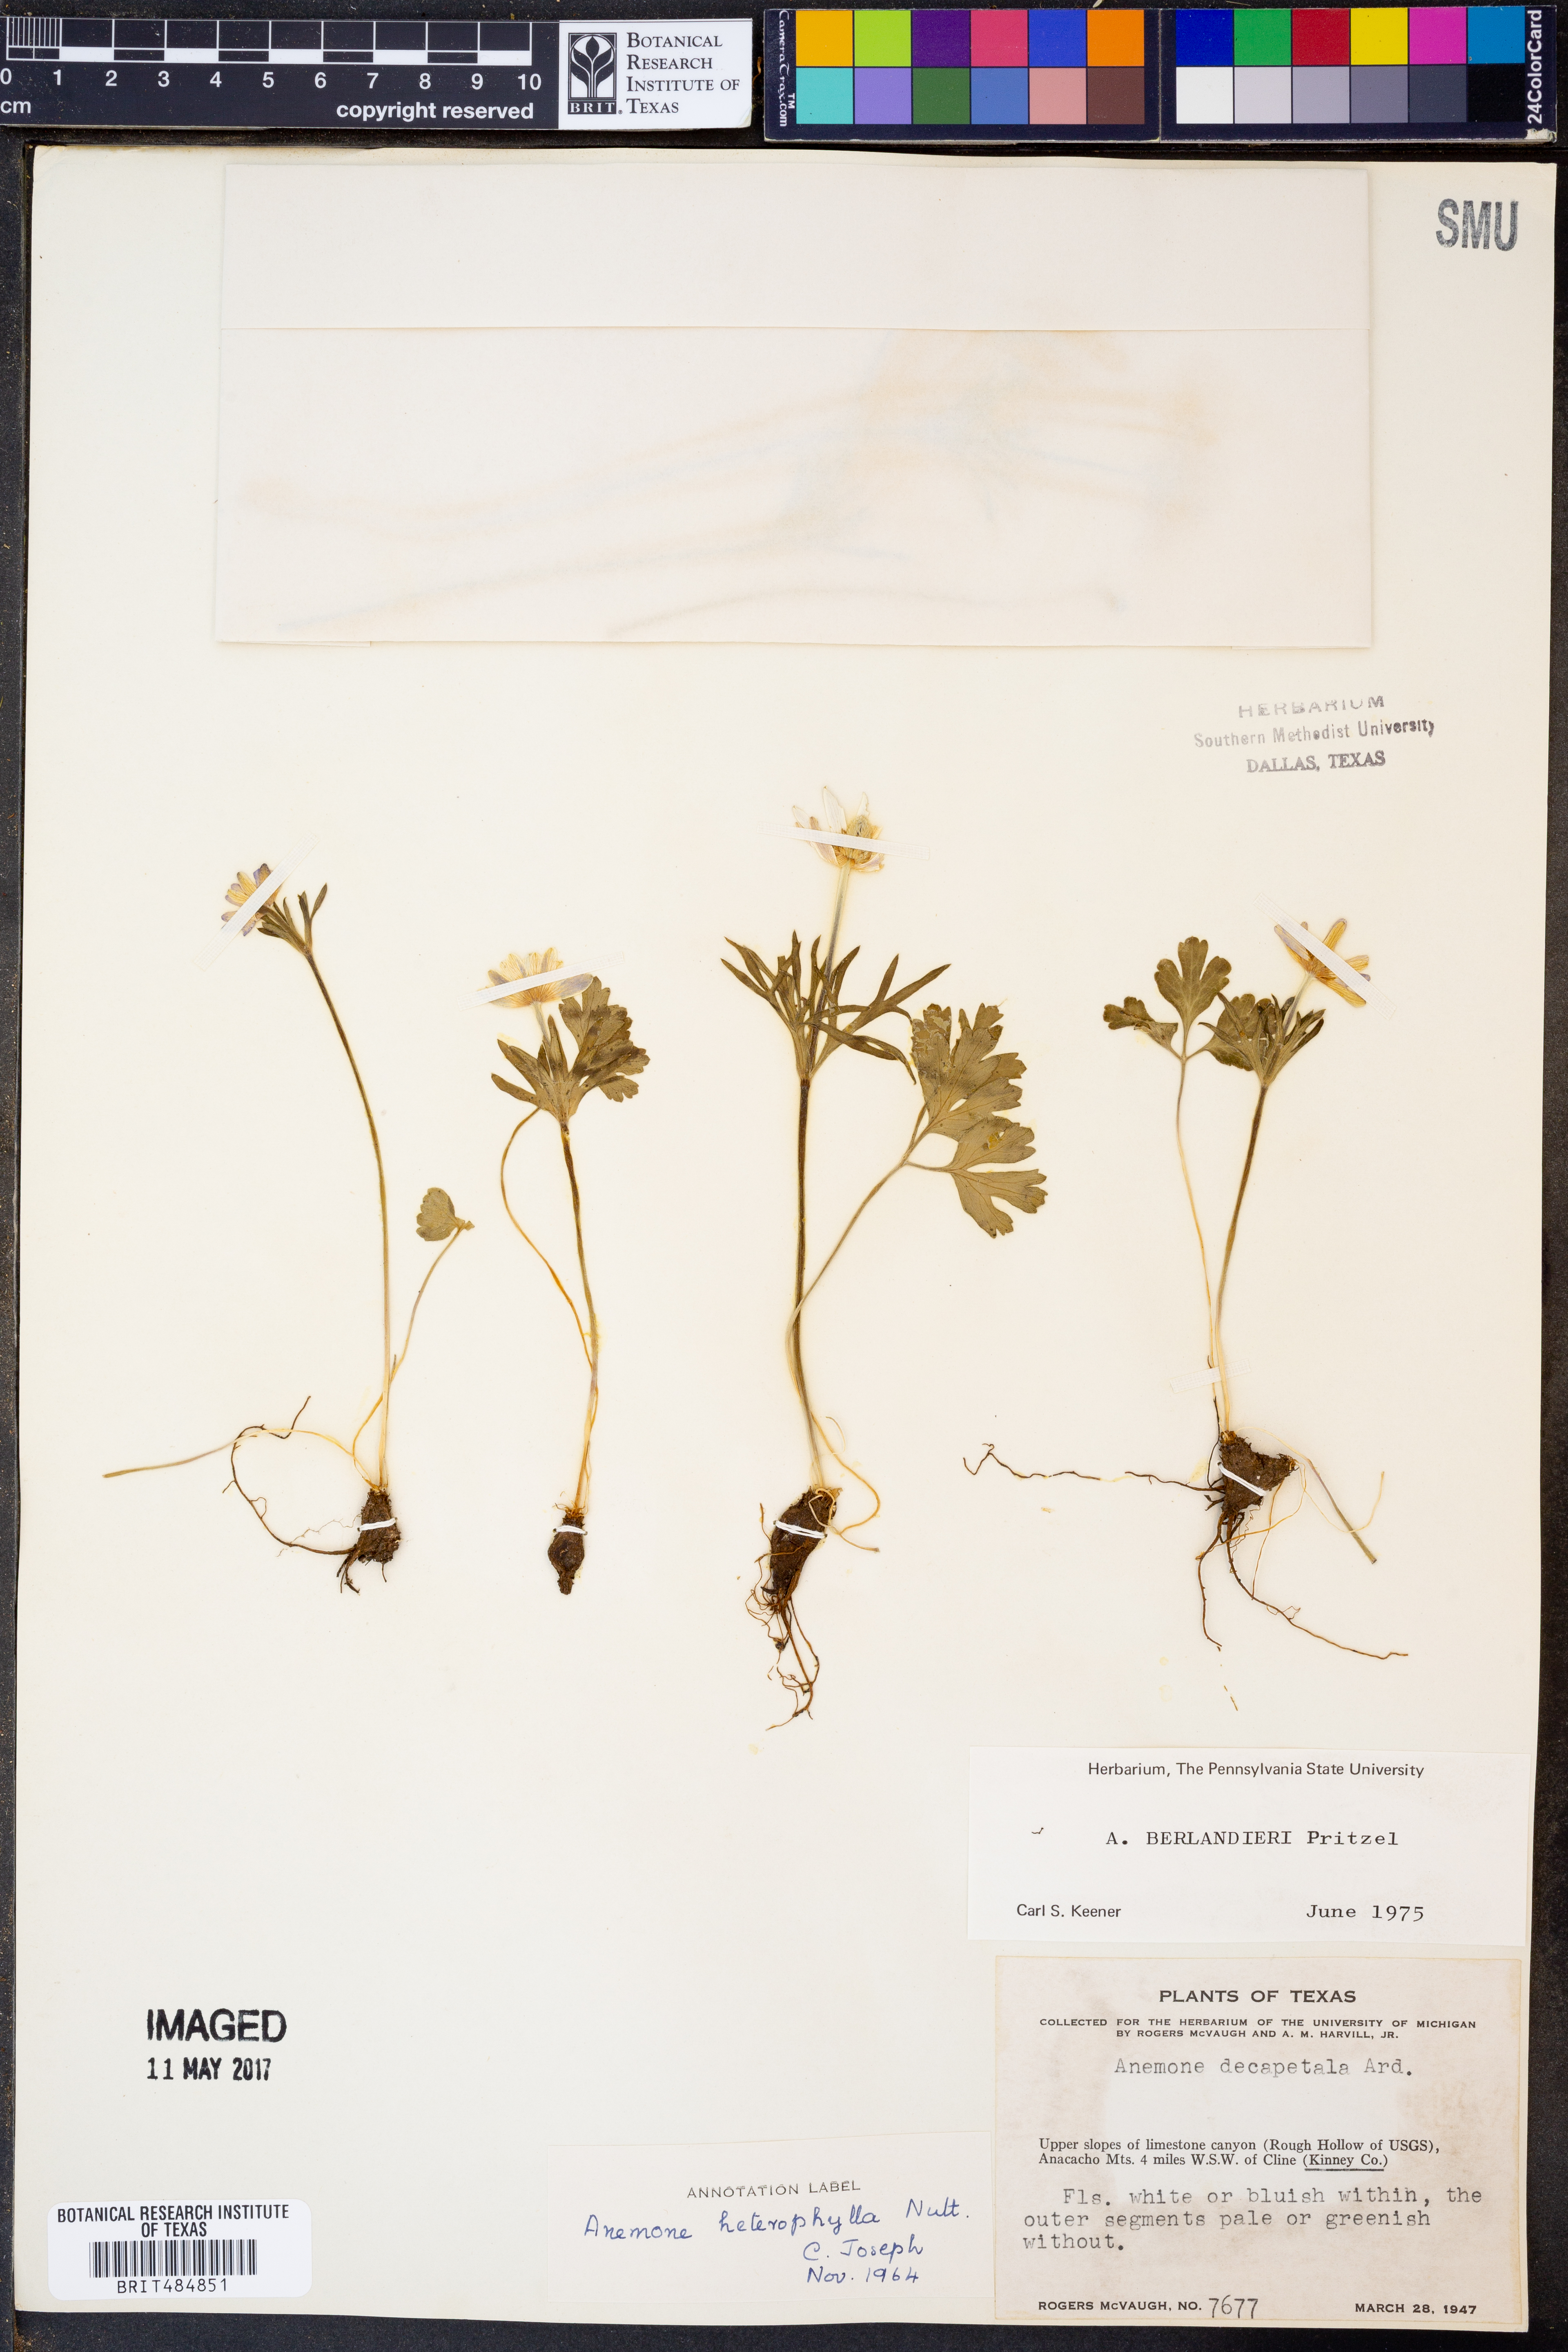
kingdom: Plantae
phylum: Tracheophyta
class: Magnoliopsida
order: Ranunculales
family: Ranunculaceae
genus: Anemone
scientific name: Anemone decapetala
